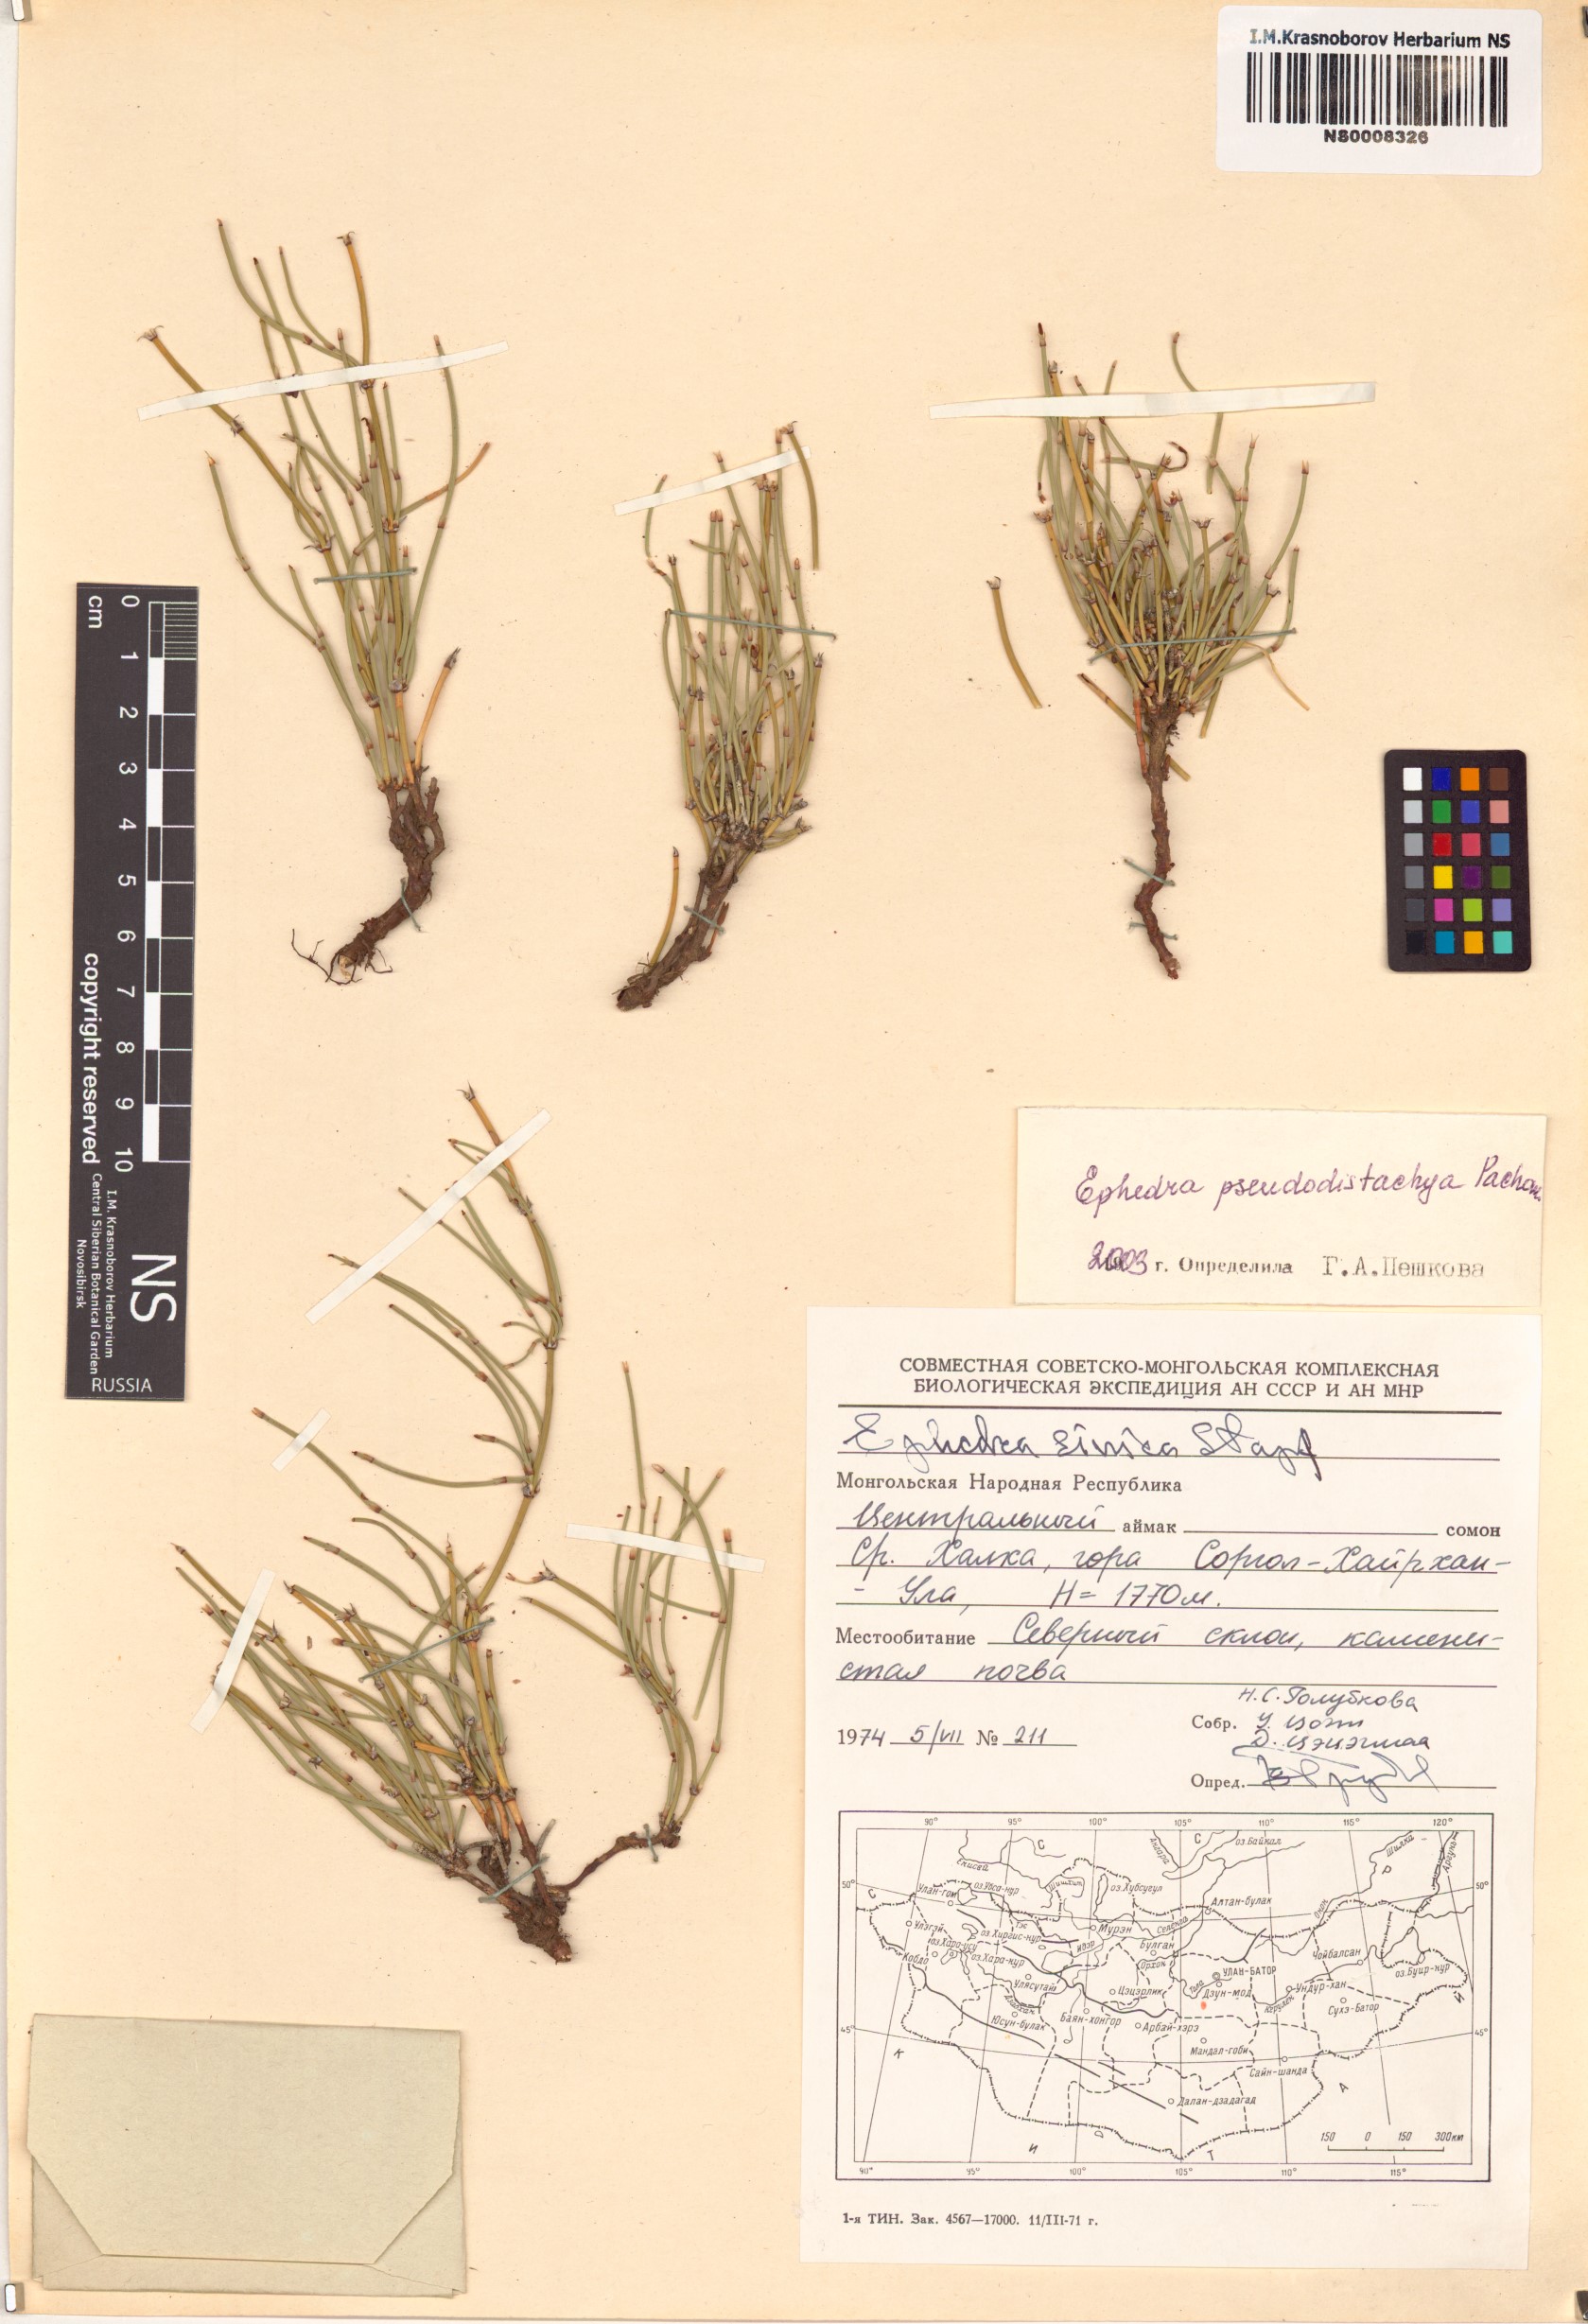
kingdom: Plantae
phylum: Tracheophyta
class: Gnetopsida
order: Ephedrales
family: Ephedraceae
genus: Ephedra
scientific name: Ephedra pseudodistachya
